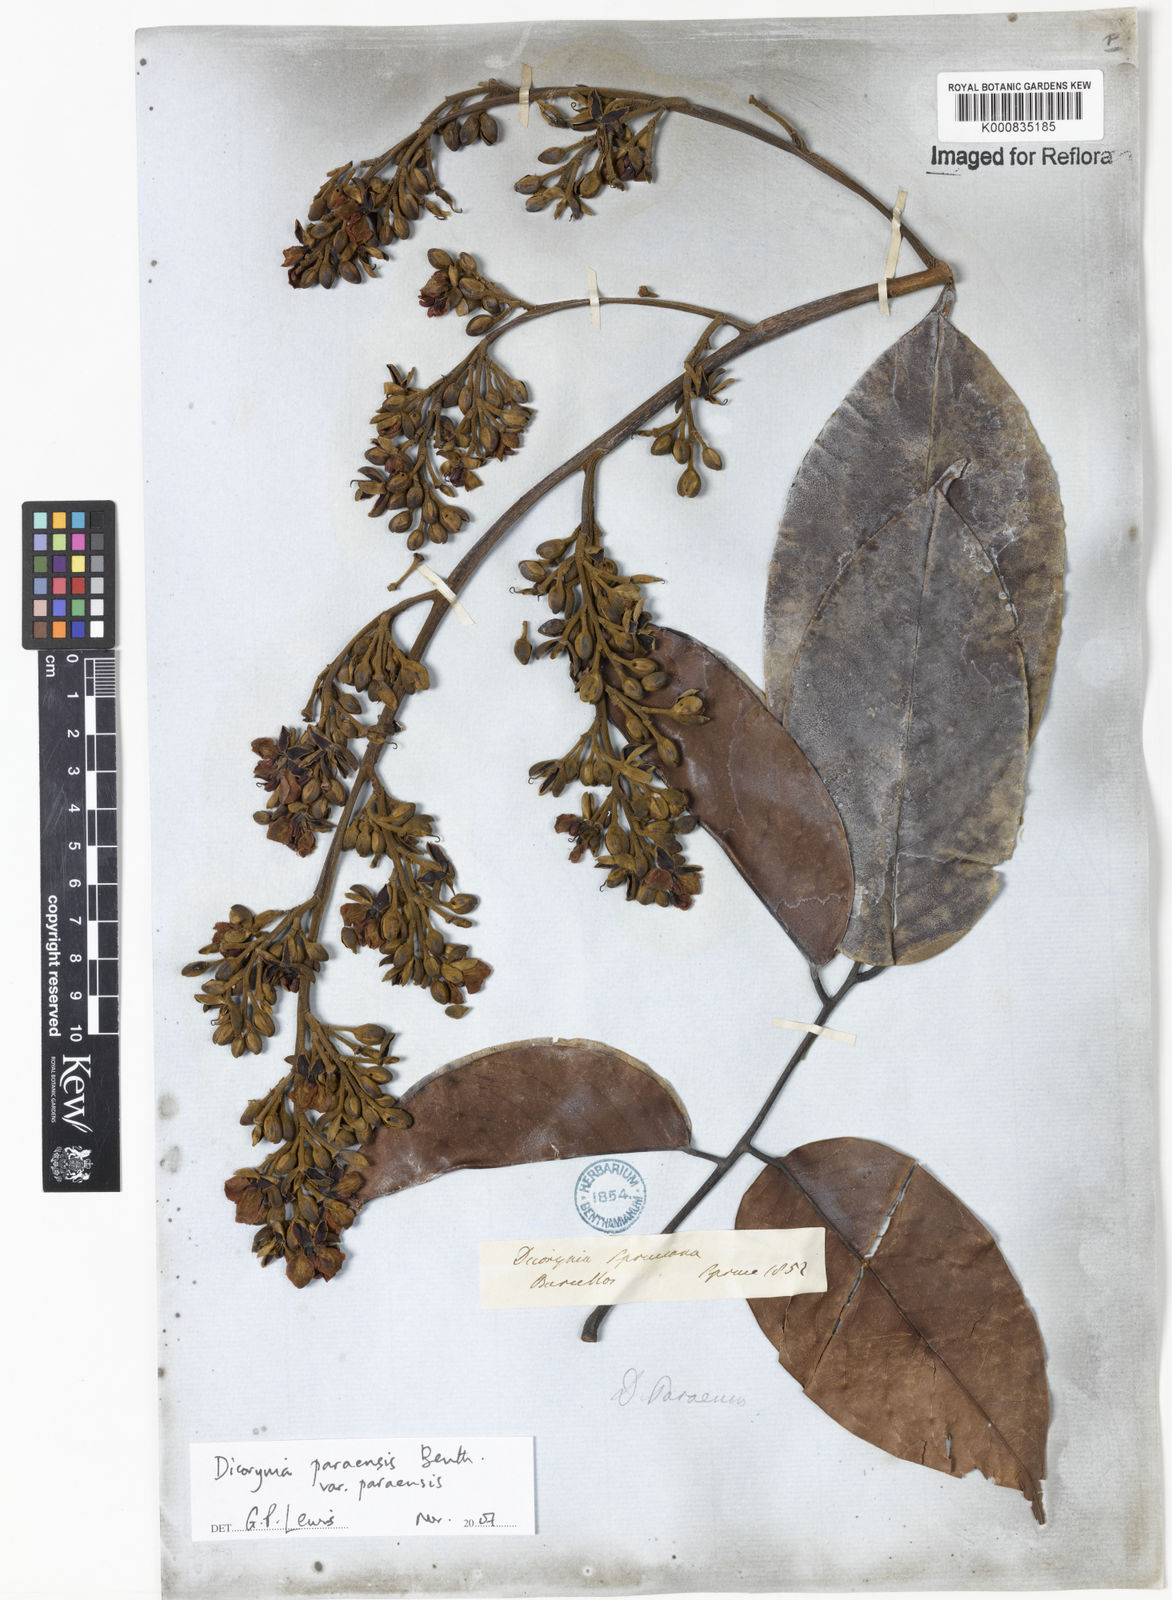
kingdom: Plantae
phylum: Tracheophyta
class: Magnoliopsida
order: Fabales
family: Fabaceae
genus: Dicorynia
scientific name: Dicorynia paraensis
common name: Angelique
